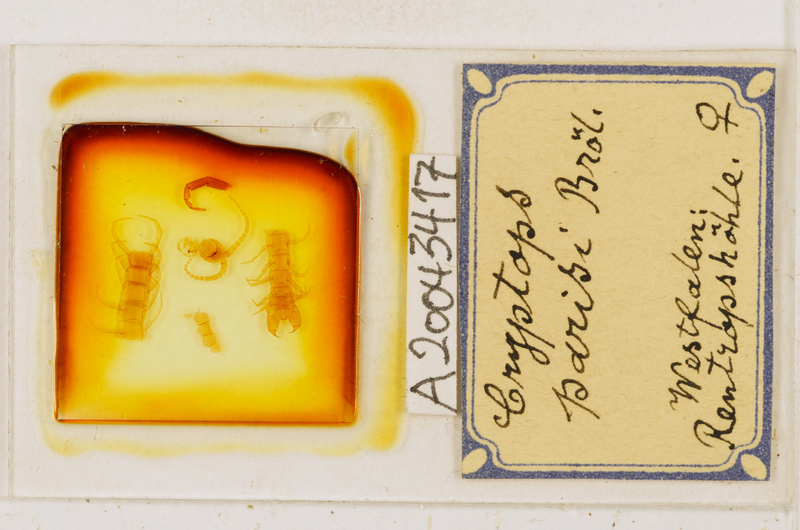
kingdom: Animalia
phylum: Arthropoda
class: Chilopoda
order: Scolopendromorpha
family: Cryptopidae
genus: Cryptops
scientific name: Cryptops parisi
